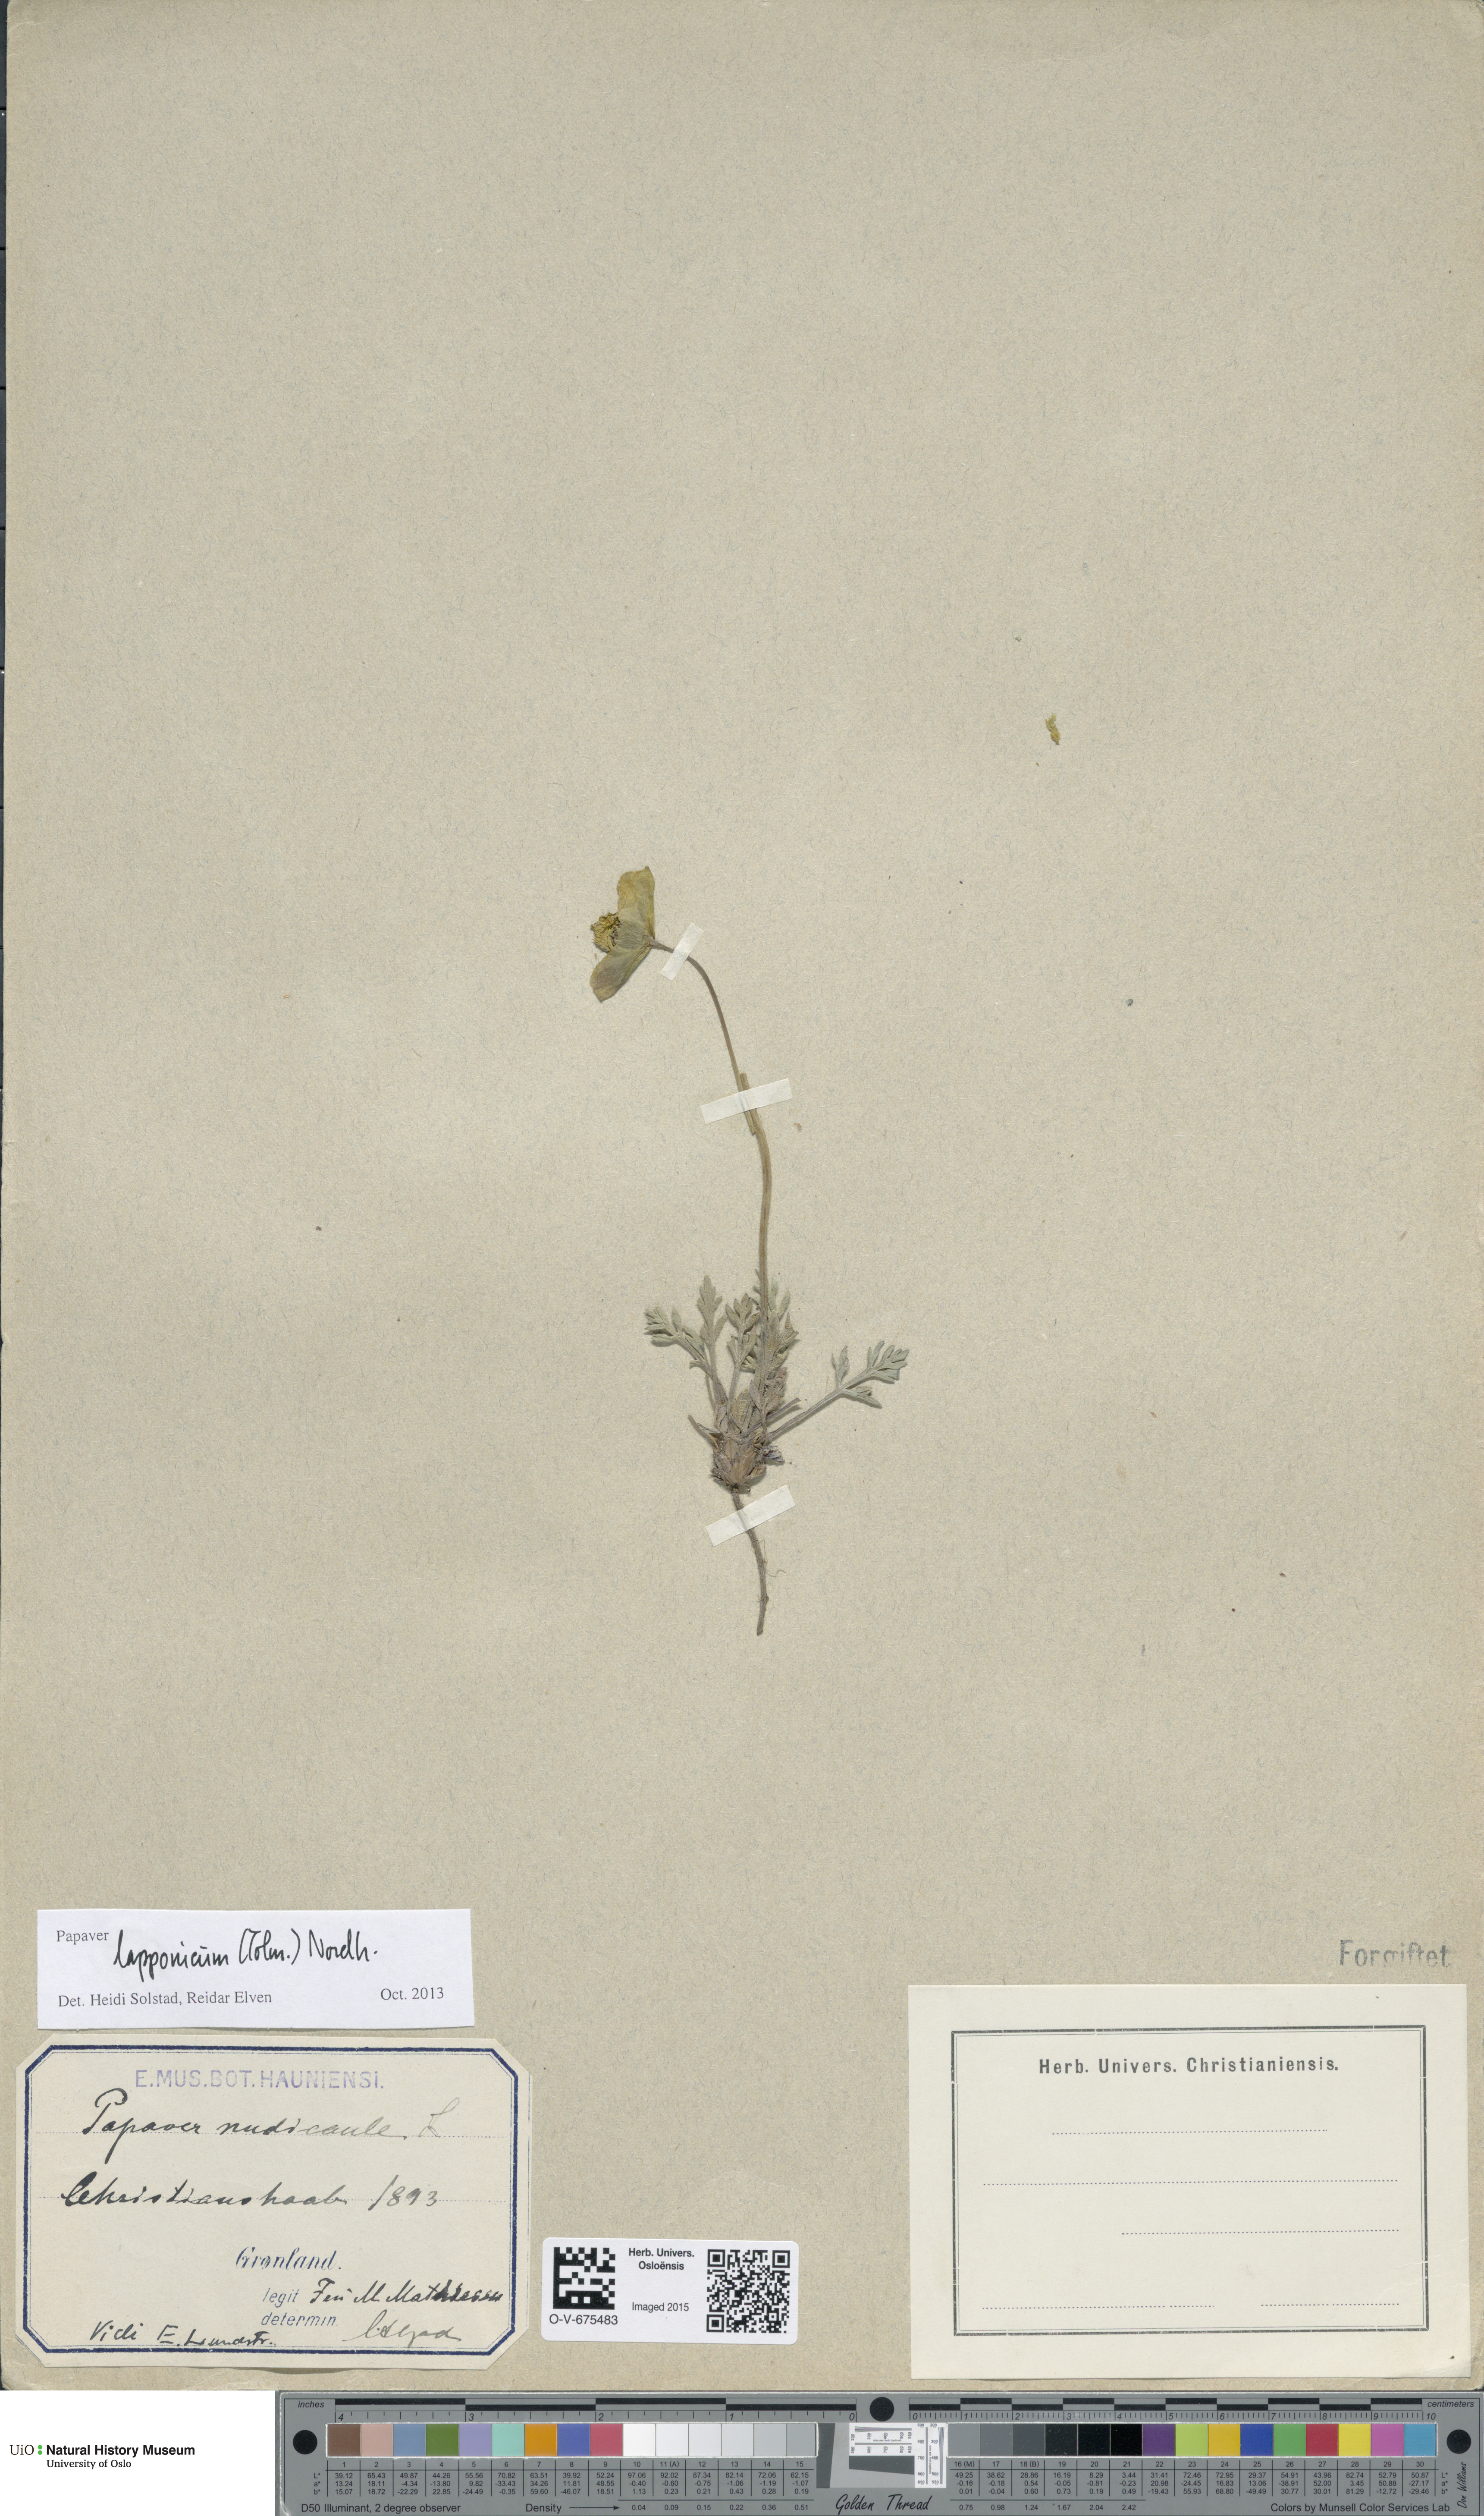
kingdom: Plantae
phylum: Tracheophyta
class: Magnoliopsida
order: Ranunculales
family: Papaveraceae
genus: Papaver
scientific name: Papaver lapponicum
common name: Lapland poppy
